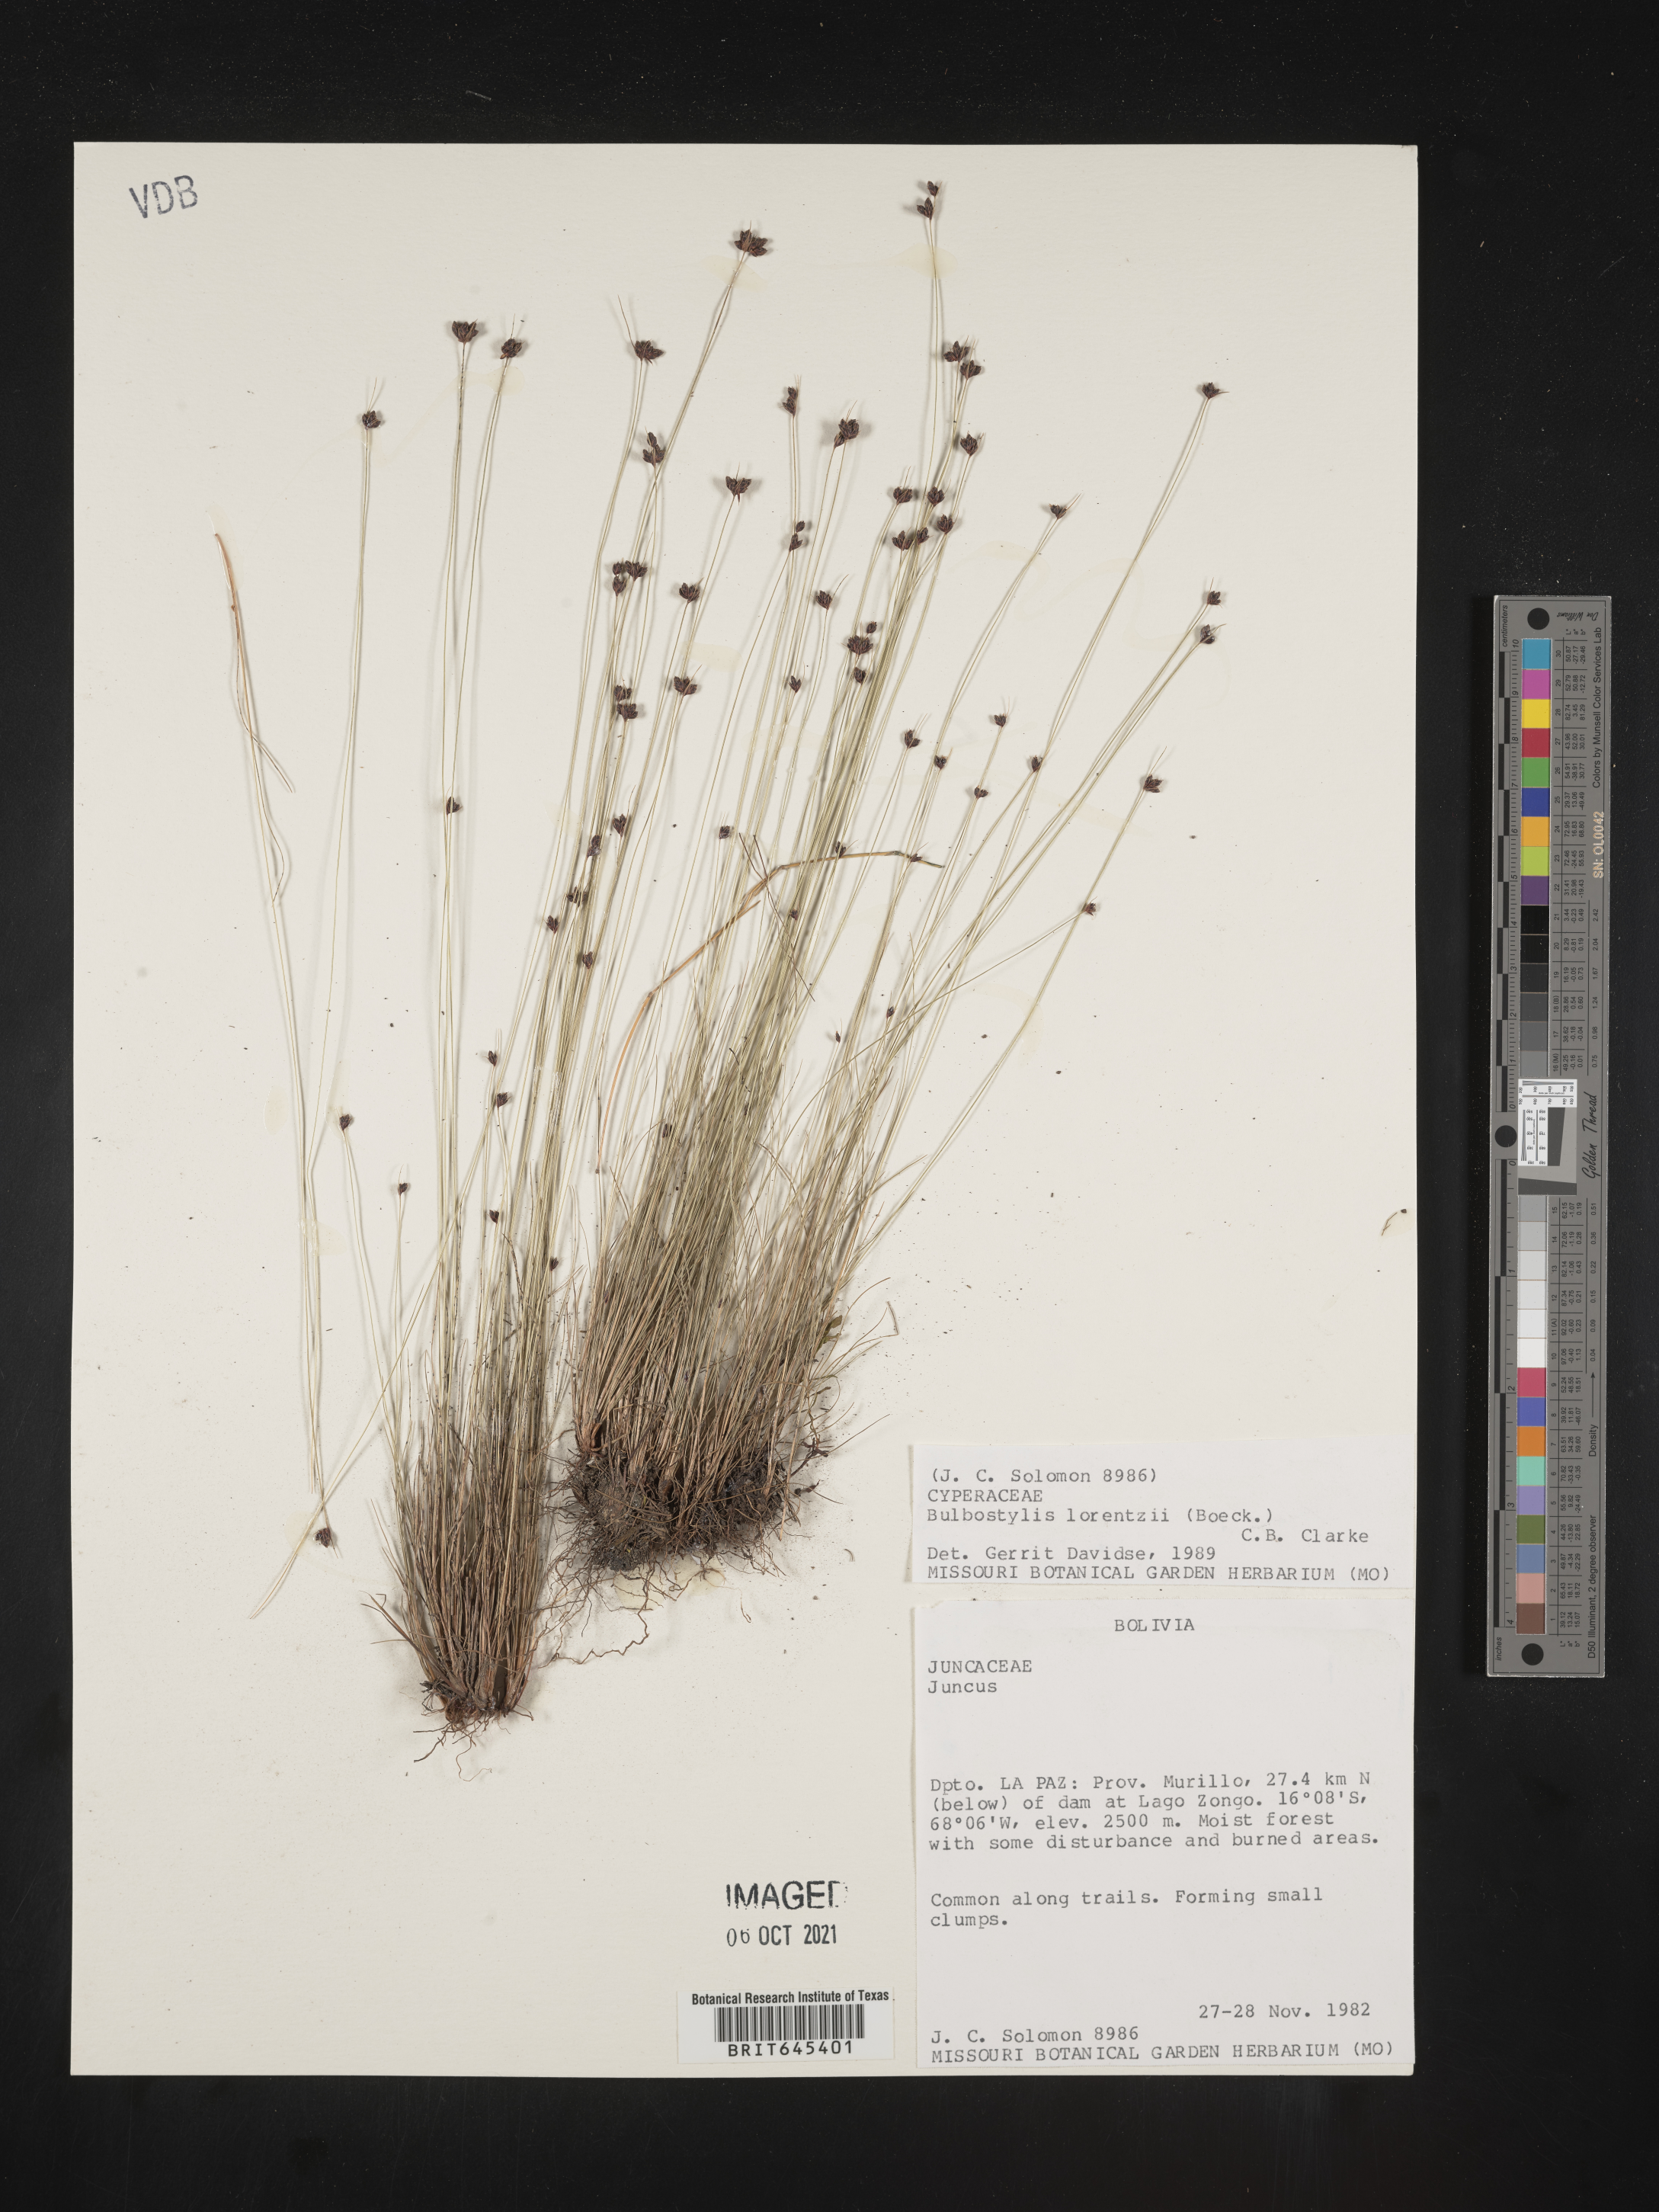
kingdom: Plantae
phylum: Tracheophyta
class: Liliopsida
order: Poales
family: Cyperaceae
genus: Bulbostylis
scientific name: Bulbostylis juncoides
